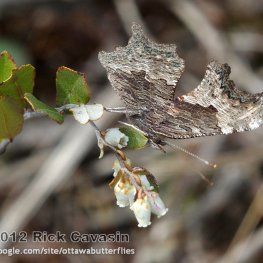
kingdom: Animalia
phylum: Arthropoda
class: Insecta
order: Lepidoptera
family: Nymphalidae
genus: Polygonia
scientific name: Polygonia progne
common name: Gray Comma
